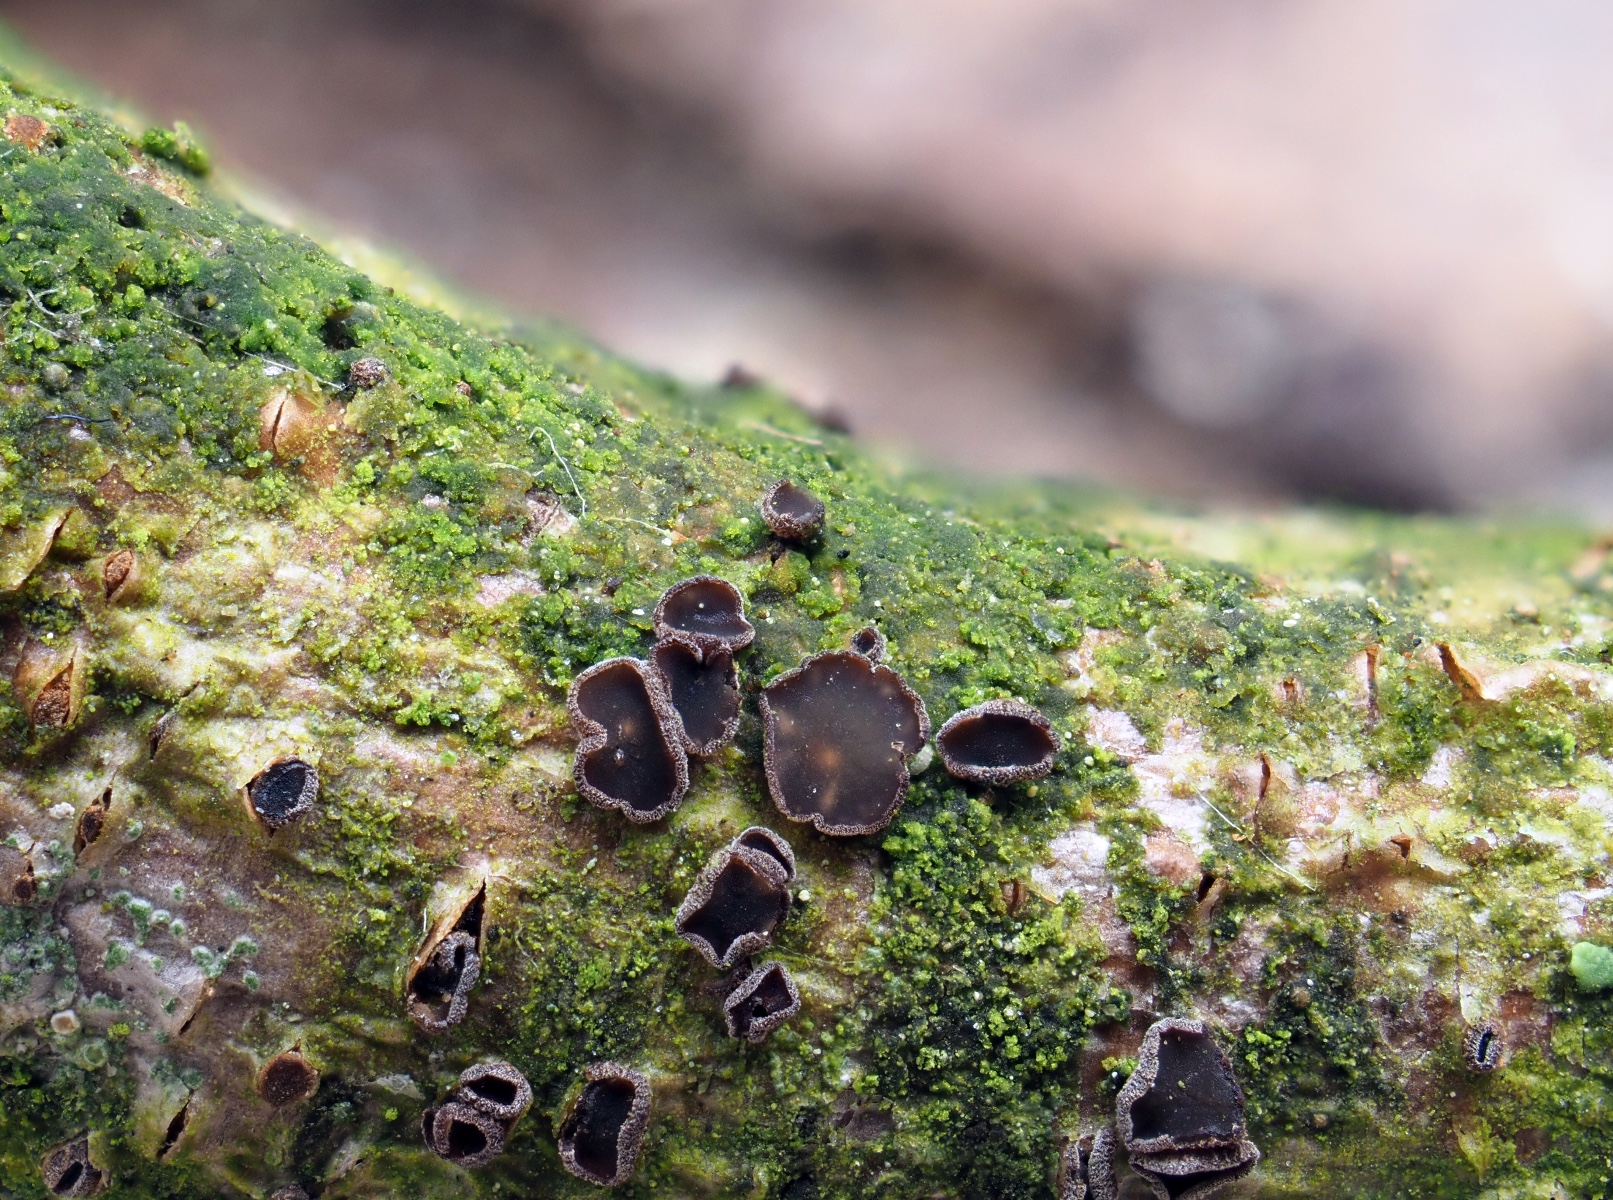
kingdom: Fungi
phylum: Ascomycota
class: Leotiomycetes
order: Helotiales
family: Hyaloscyphaceae
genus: Unguiculella
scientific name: Unguiculella robergei
